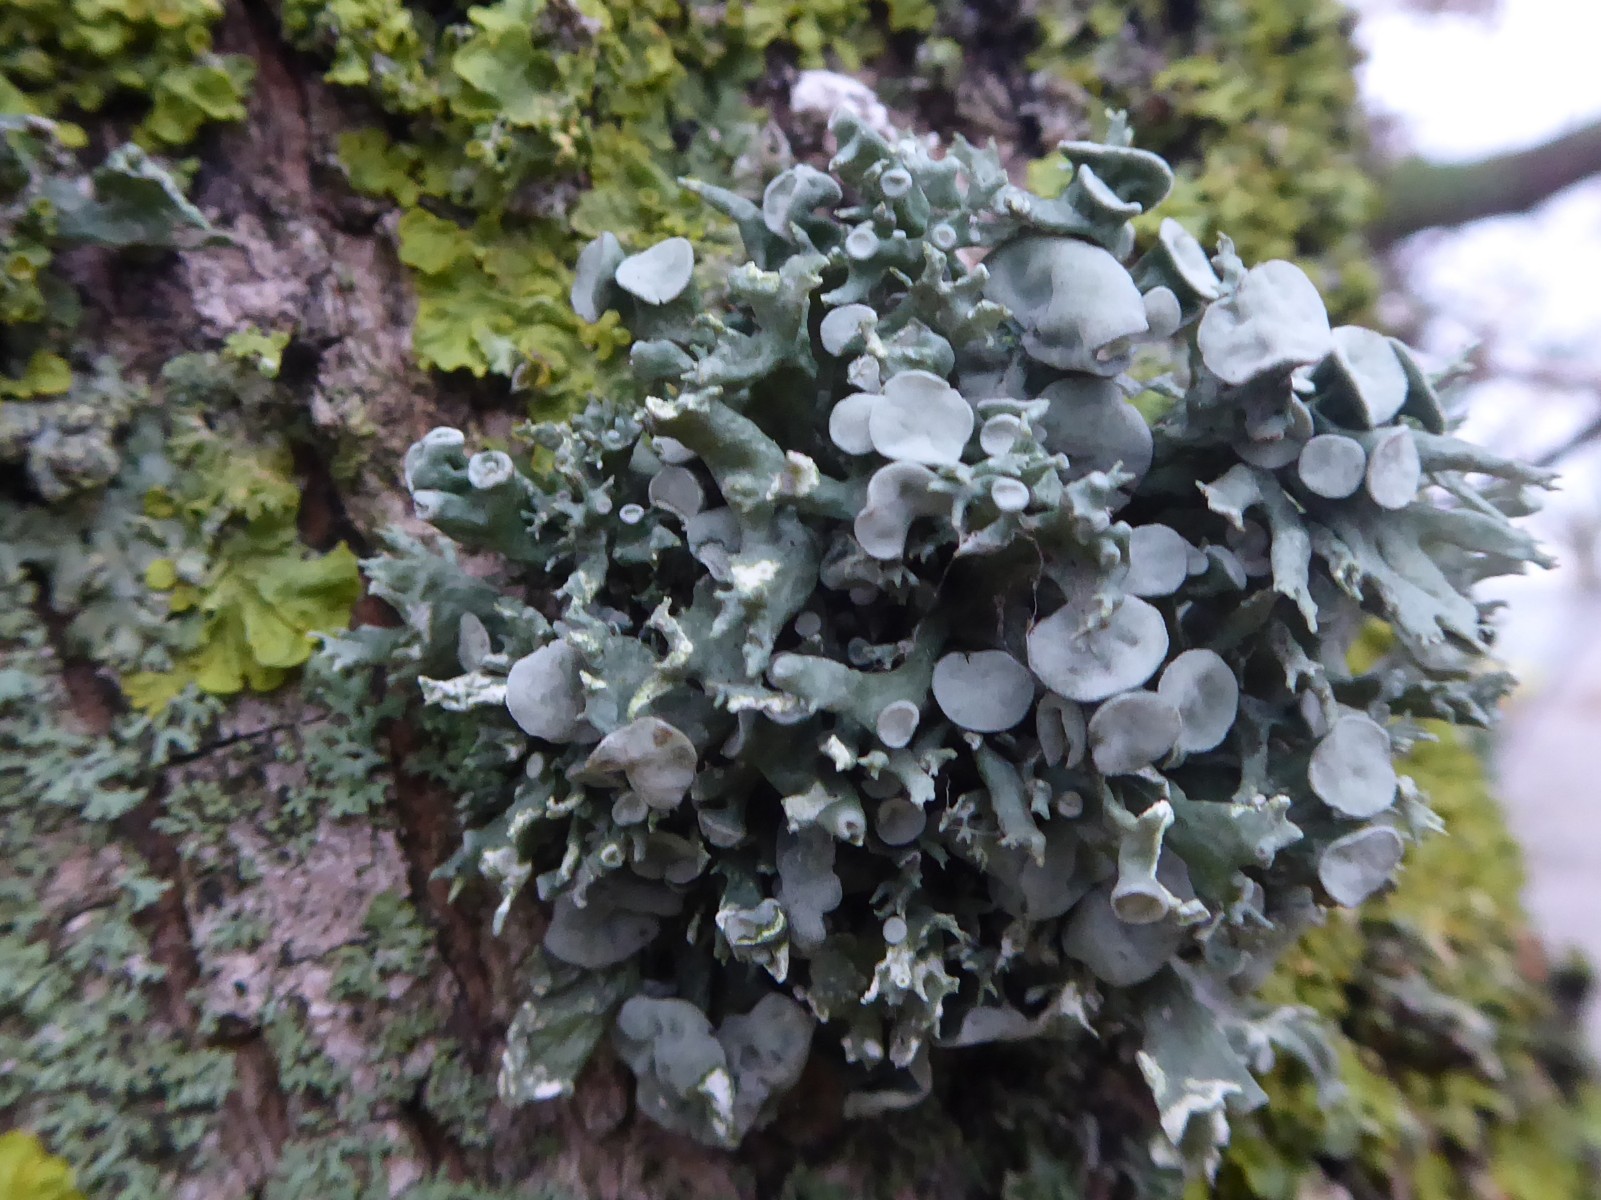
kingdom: Fungi
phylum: Ascomycota
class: Lecanoromycetes
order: Lecanorales
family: Ramalinaceae
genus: Ramalina
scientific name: Ramalina fastigiata
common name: tue-grenlav
